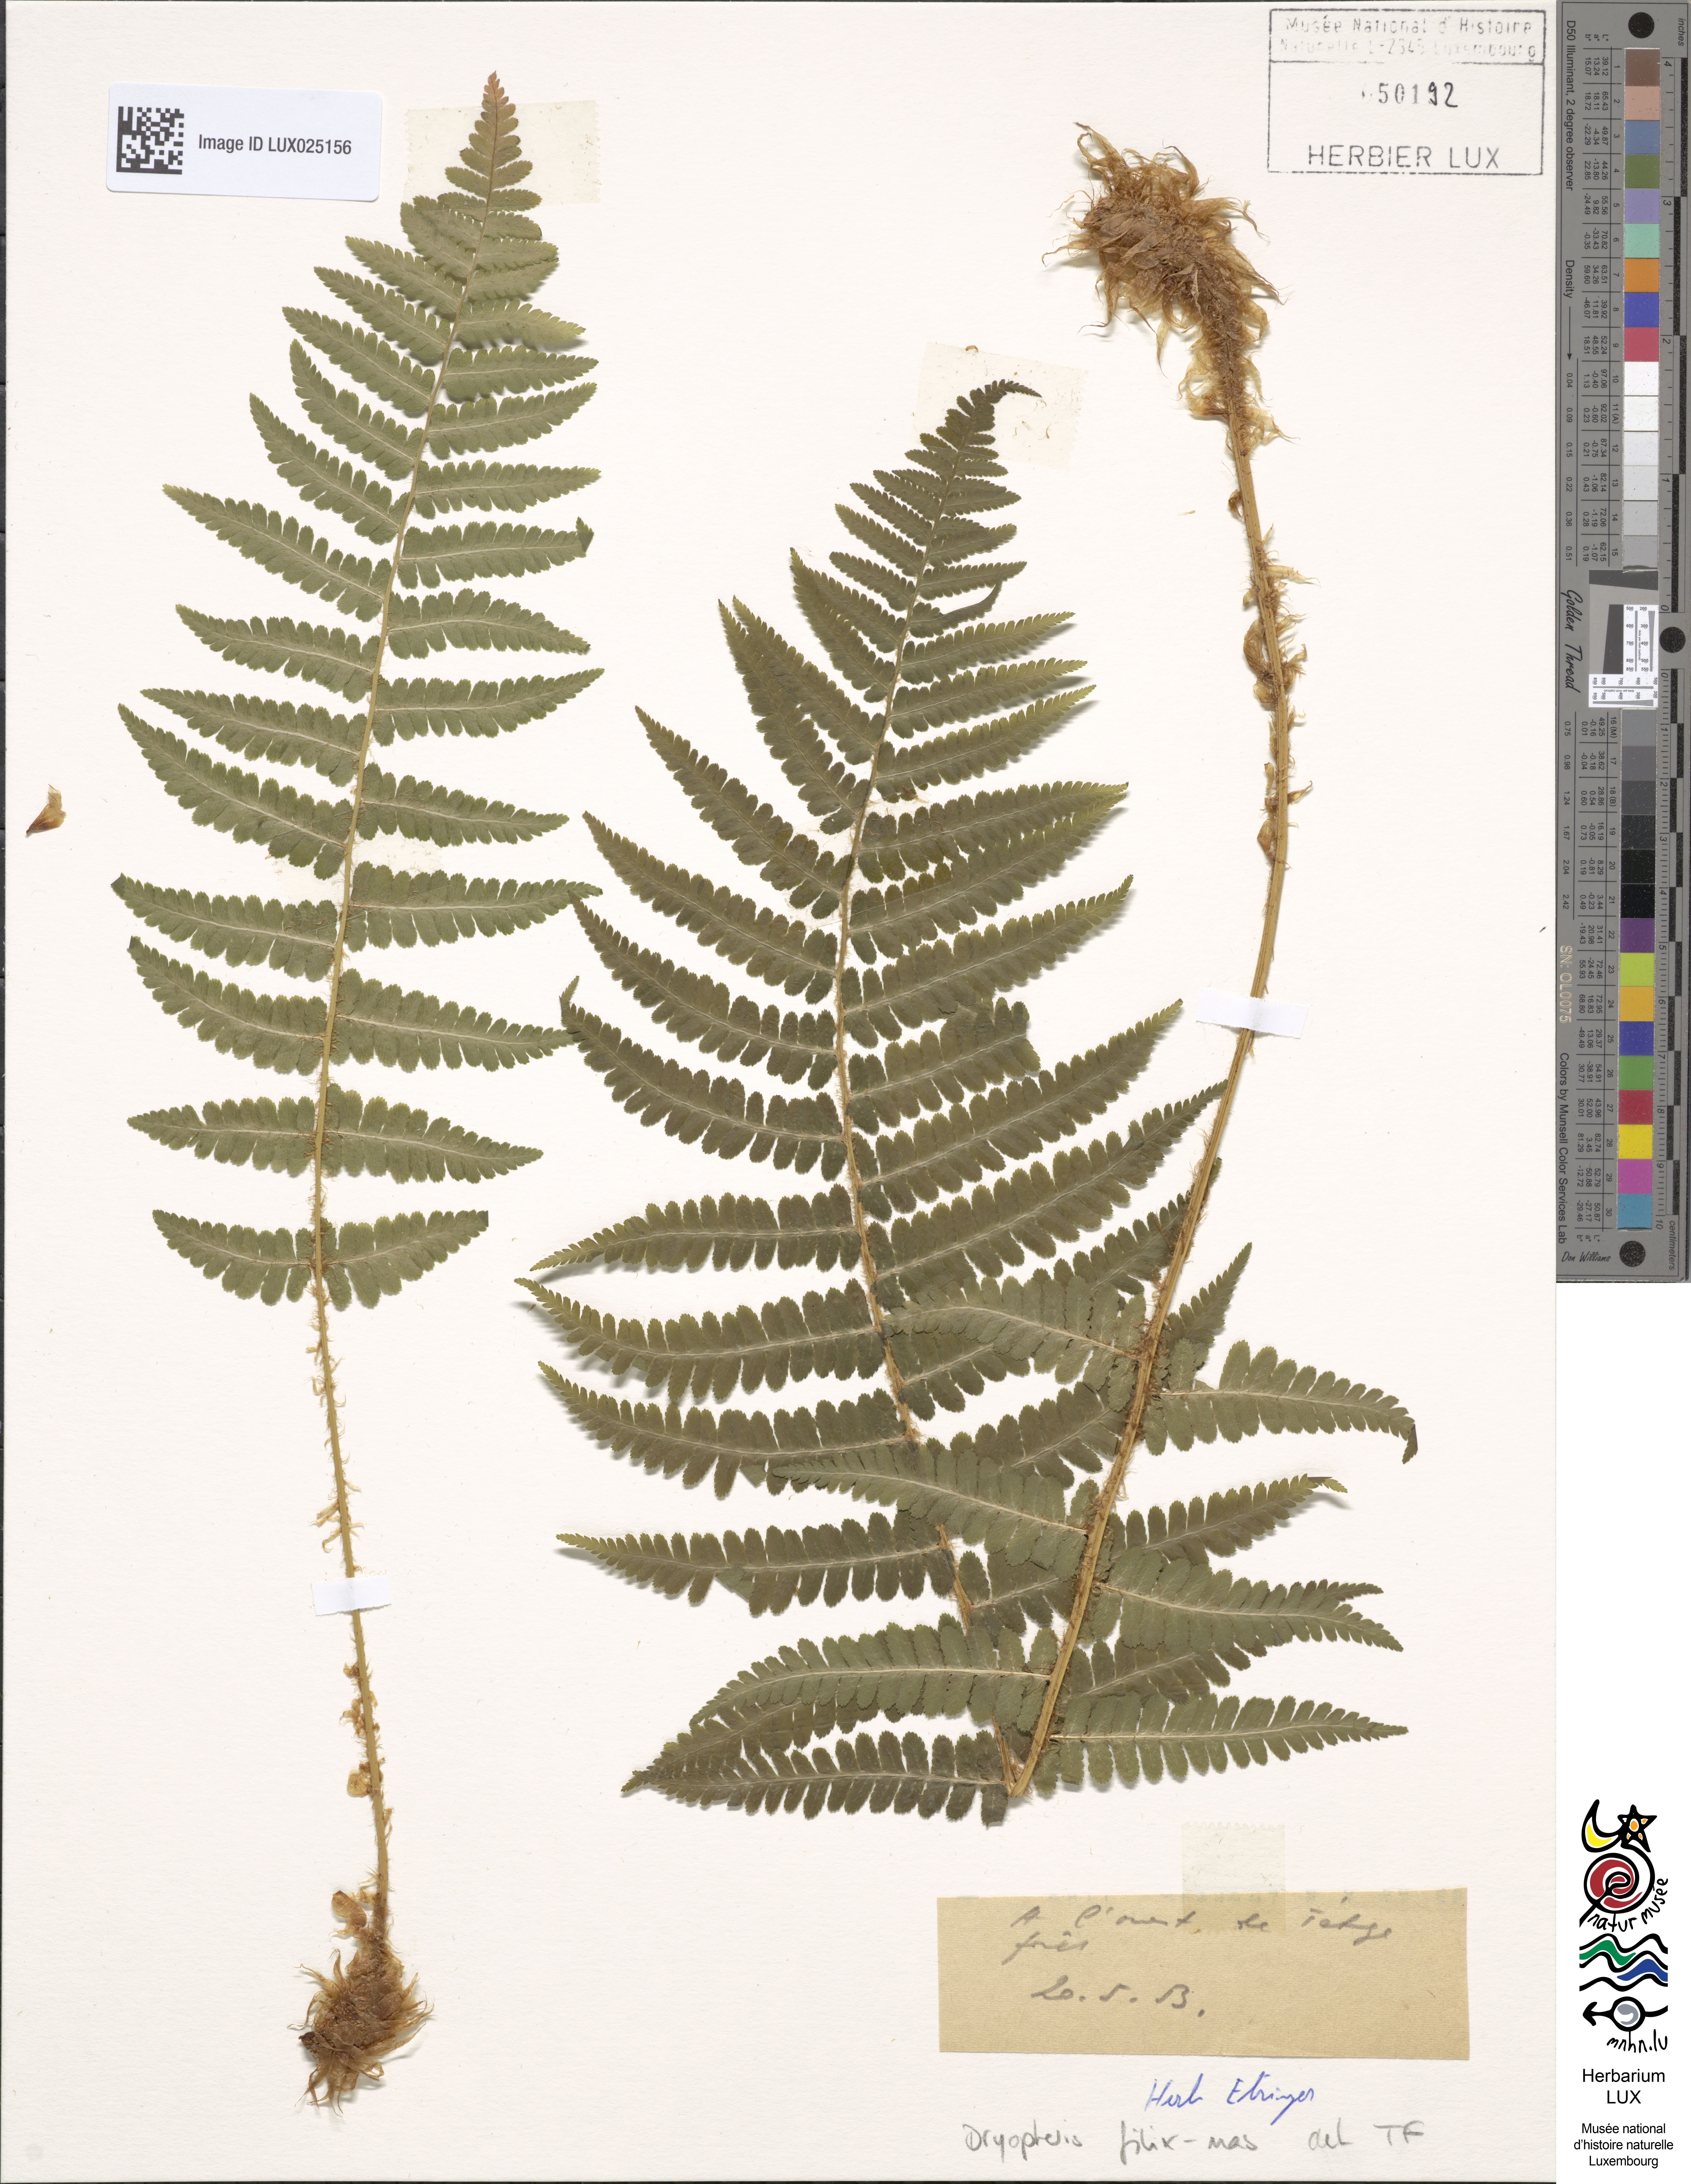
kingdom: Plantae
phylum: Tracheophyta
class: Polypodiopsida
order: Polypodiales
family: Dryopteridaceae
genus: Dryopteris
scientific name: Dryopteris filix-mas
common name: Male fern
